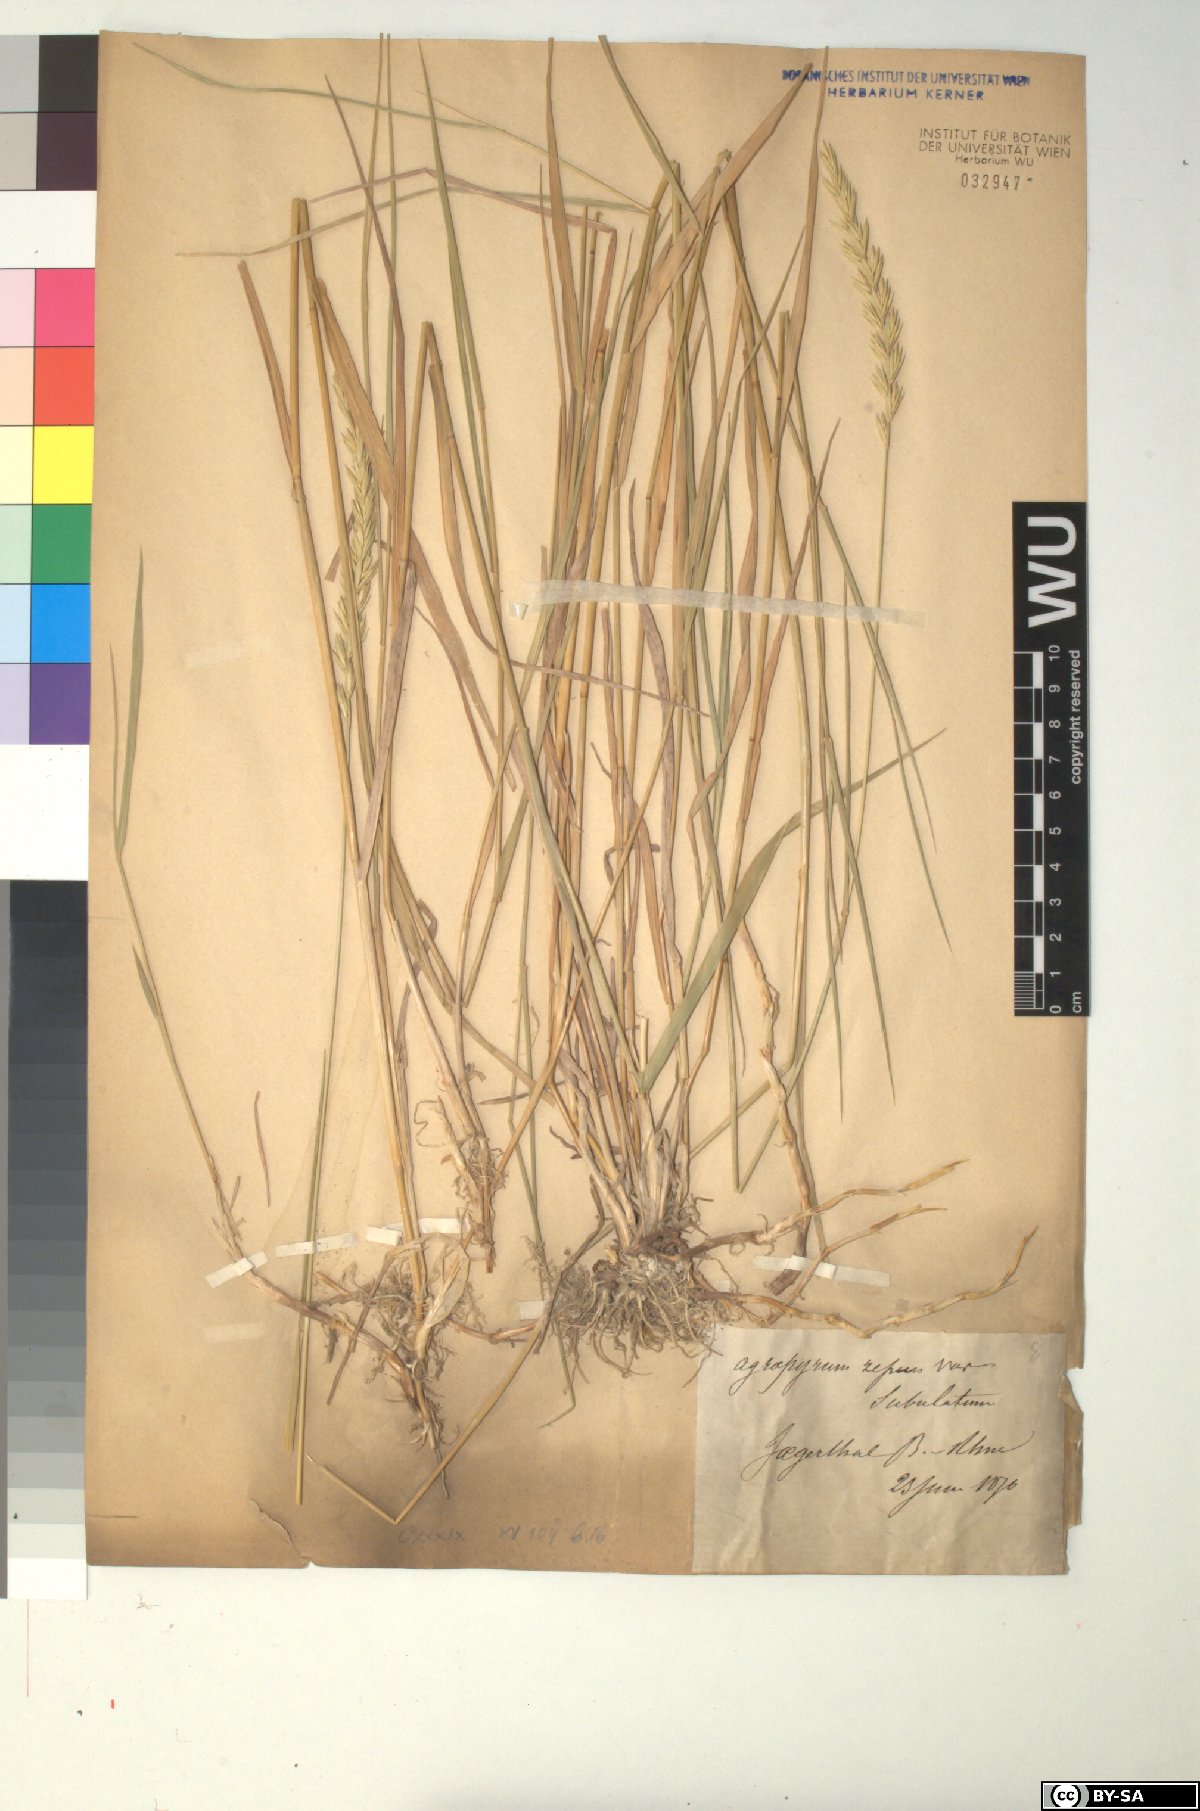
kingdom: Plantae
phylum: Tracheophyta
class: Liliopsida
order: Poales
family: Poaceae
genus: Elymus
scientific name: Elymus repens
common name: Quackgrass
